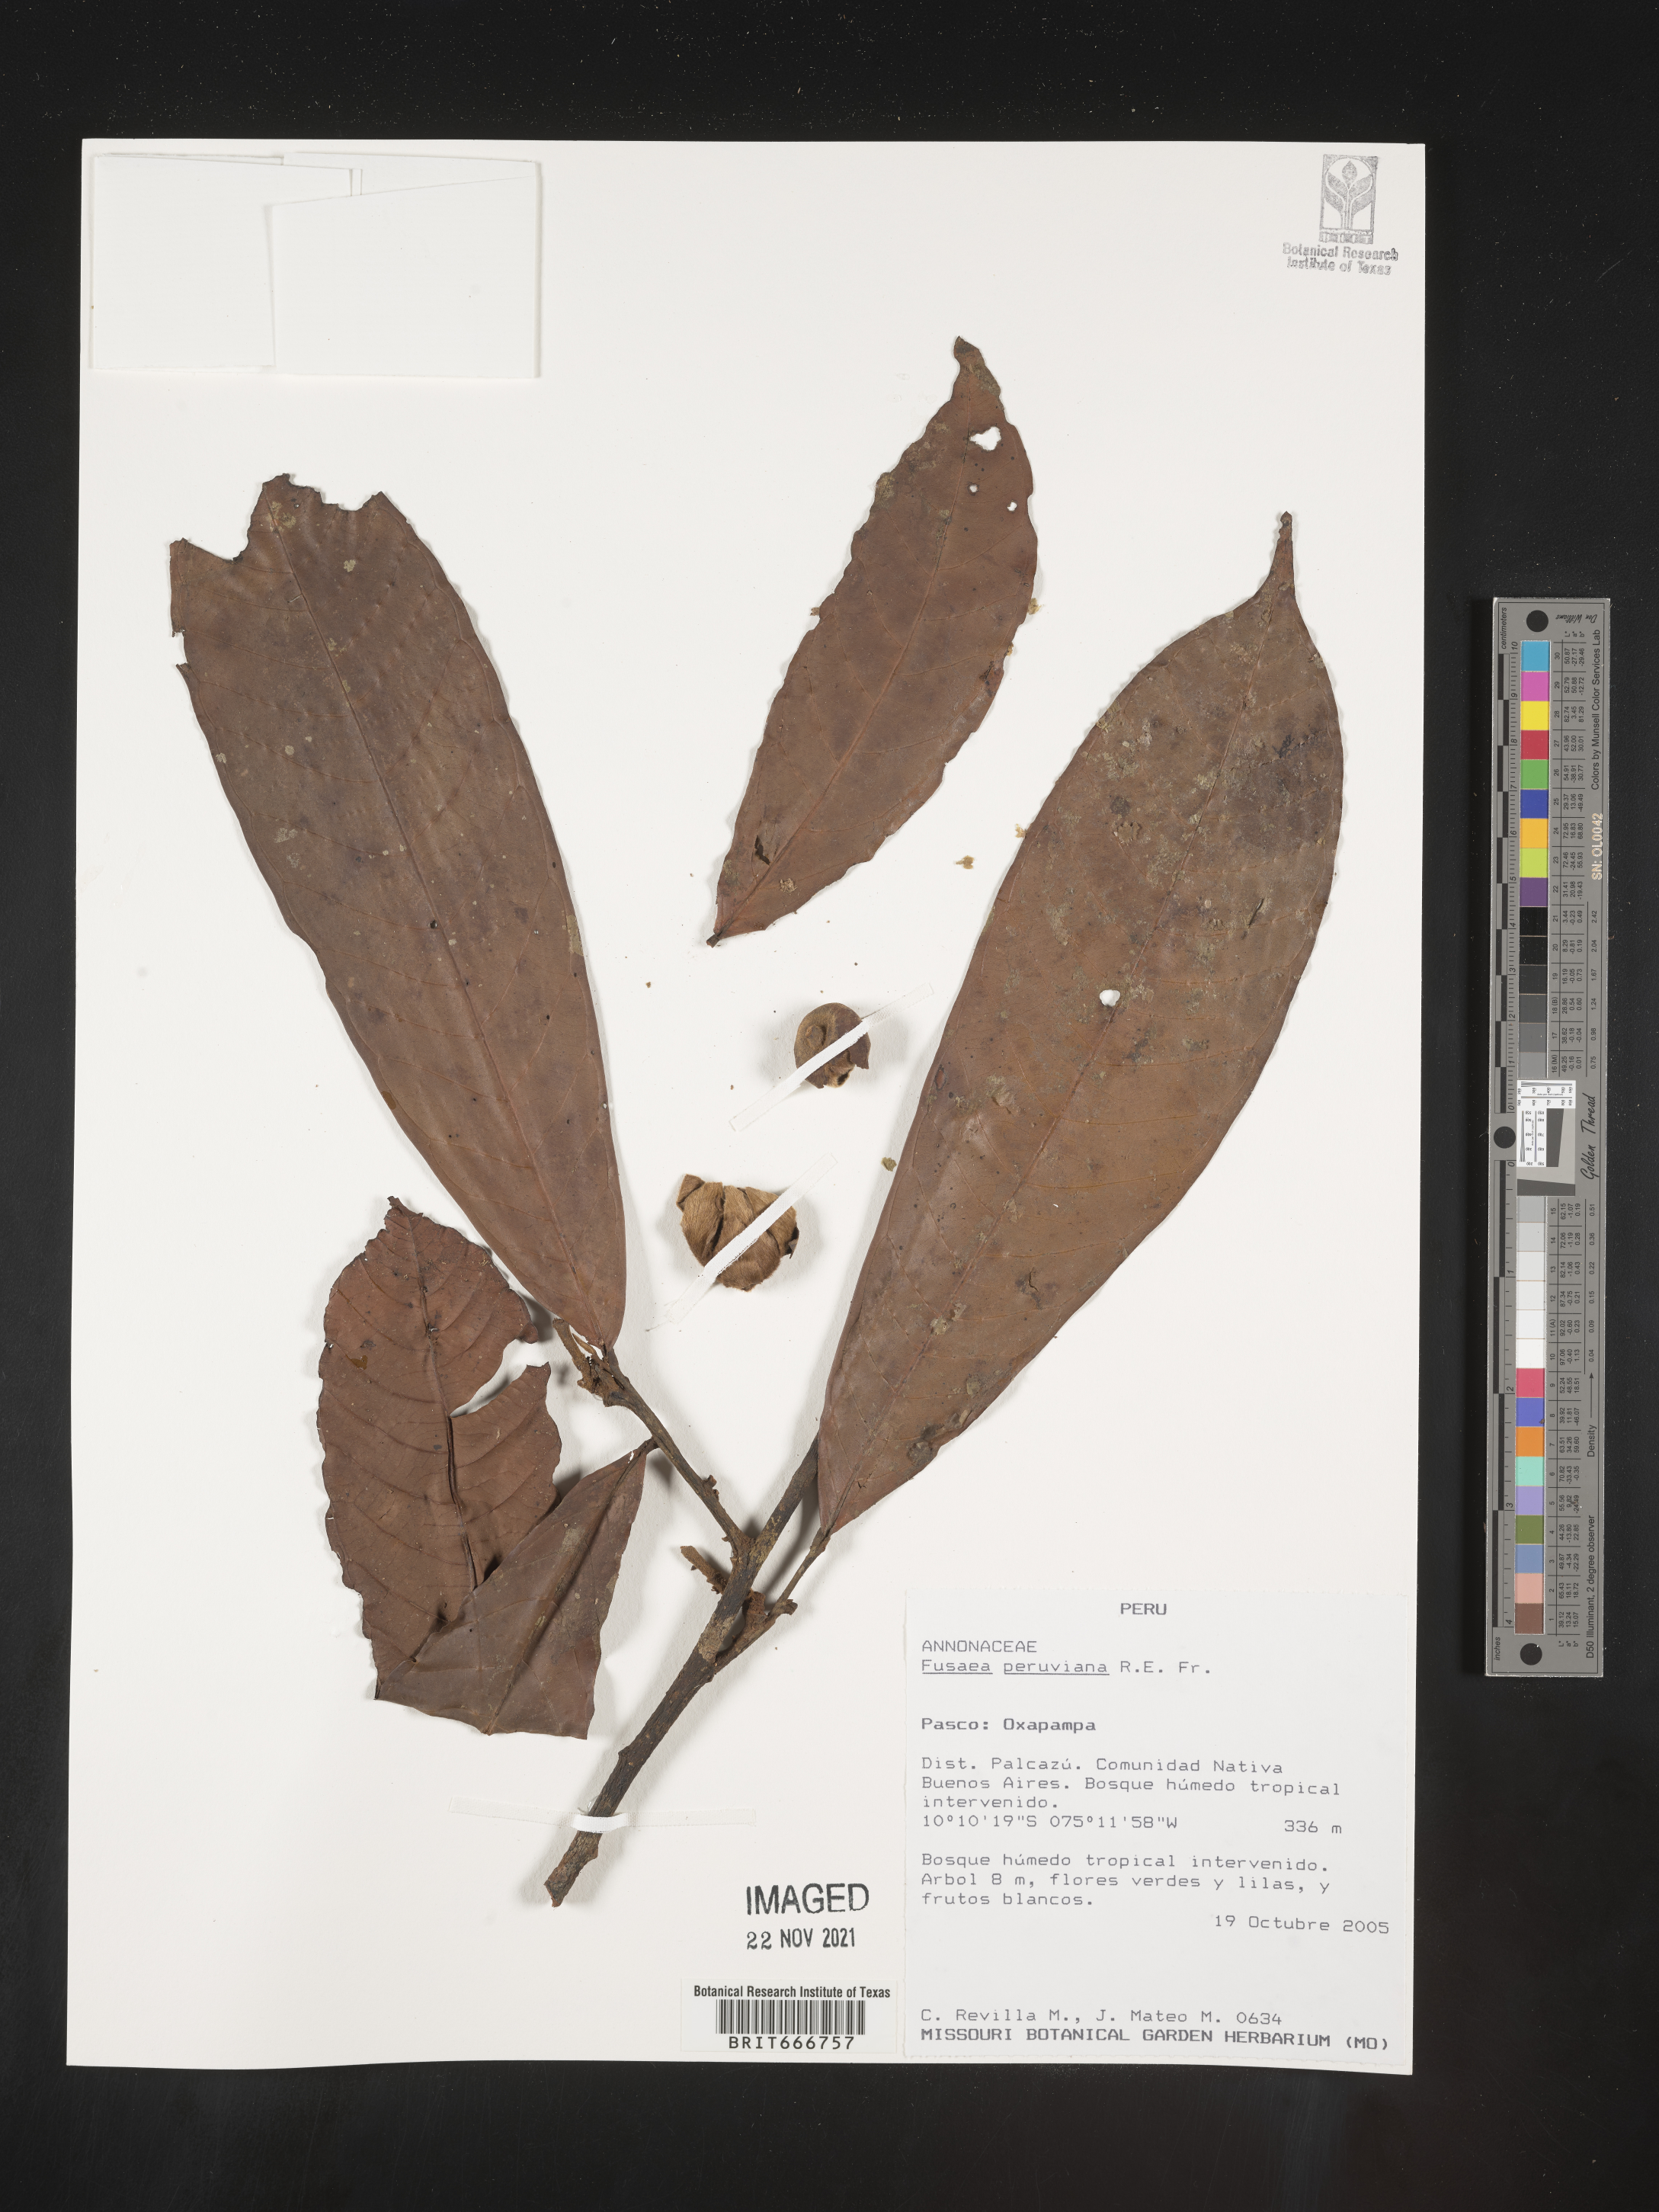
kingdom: Plantae
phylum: Tracheophyta
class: Magnoliopsida
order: Magnoliales
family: Annonaceae
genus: Fusaea
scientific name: Fusaea
